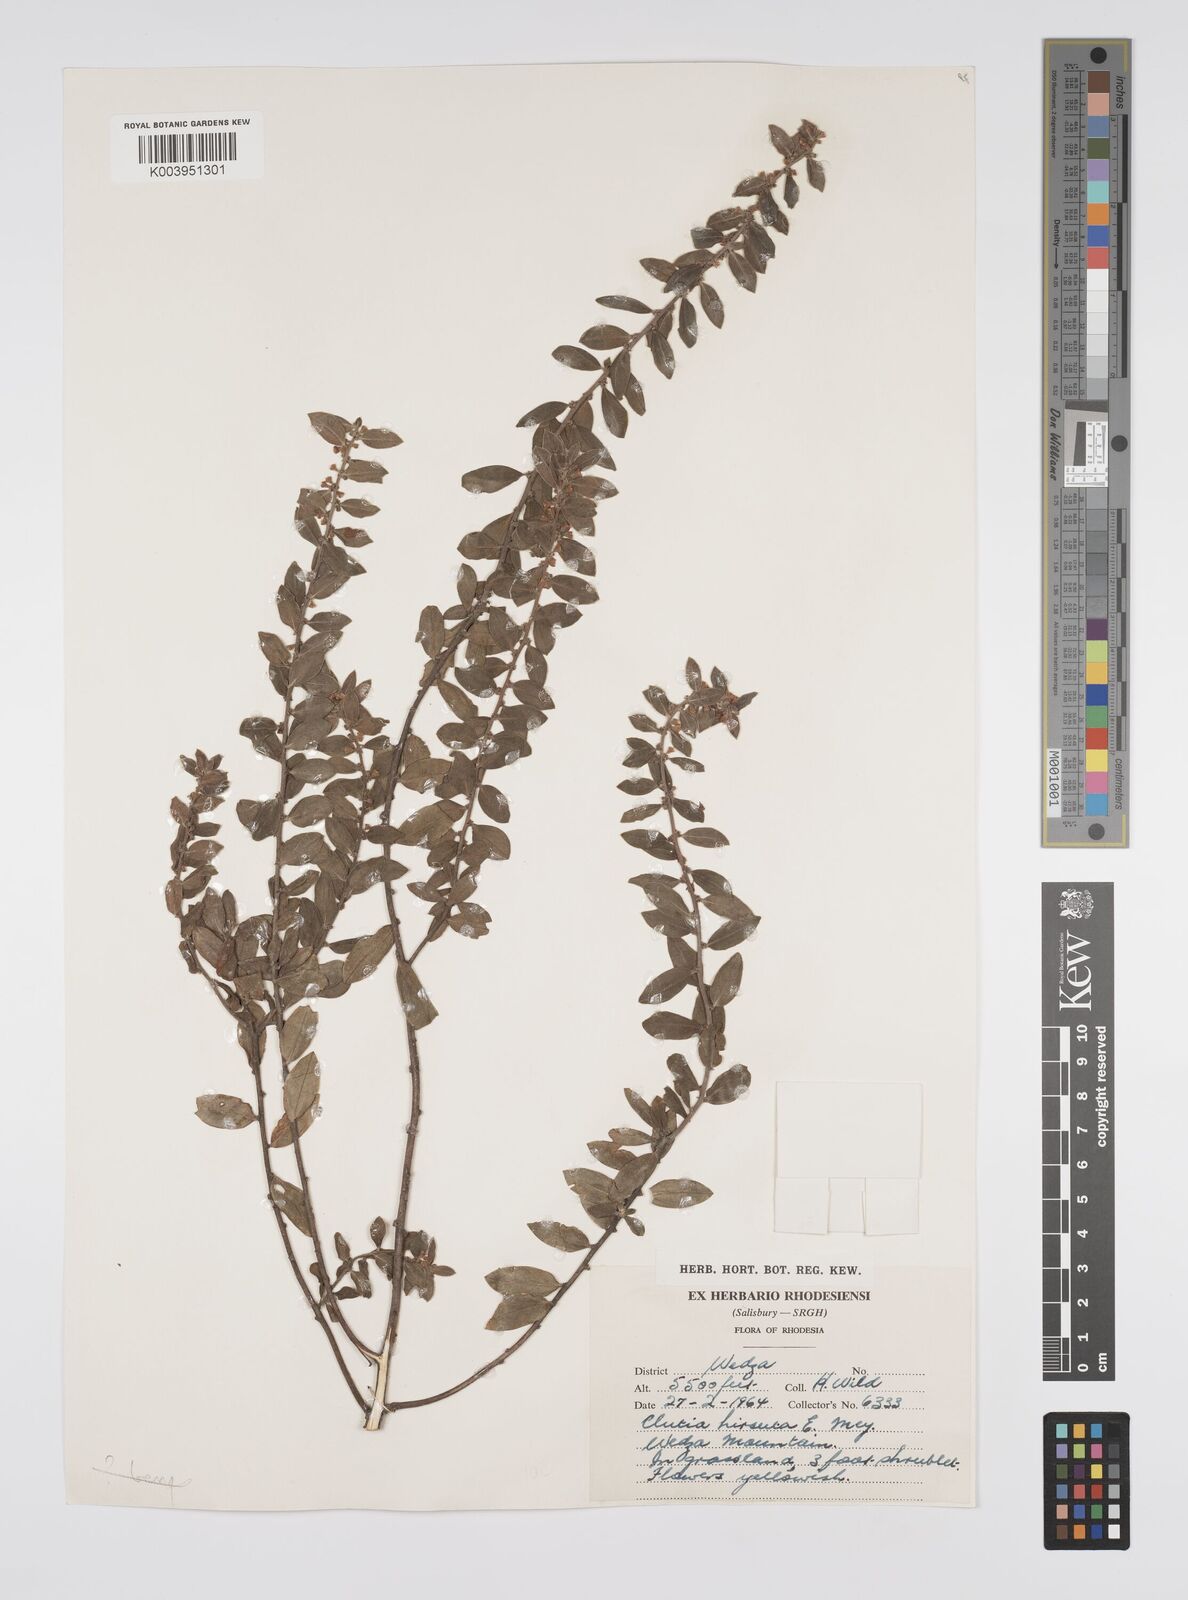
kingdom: Plantae
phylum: Tracheophyta
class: Magnoliopsida
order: Malpighiales
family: Peraceae
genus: Clutia
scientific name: Clutia hirsuta
